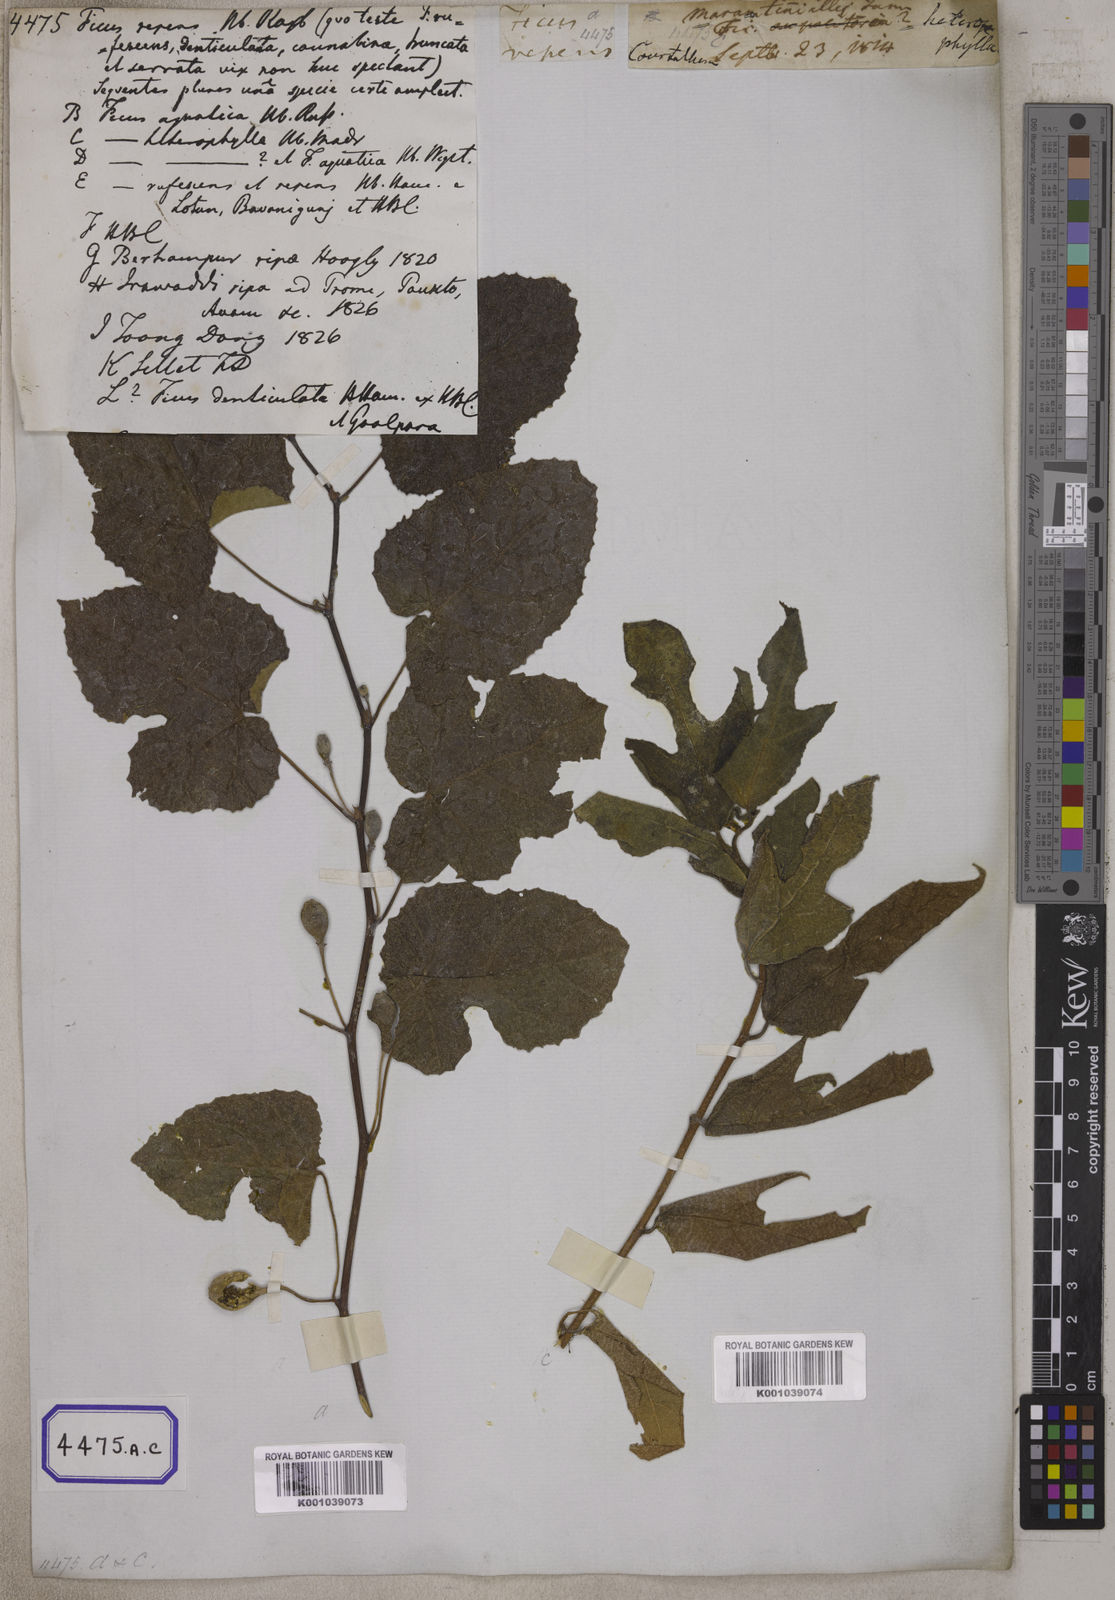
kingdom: Plantae
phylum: Tracheophyta
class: Magnoliopsida
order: Rosales
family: Moraceae
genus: Ficus
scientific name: Ficus
